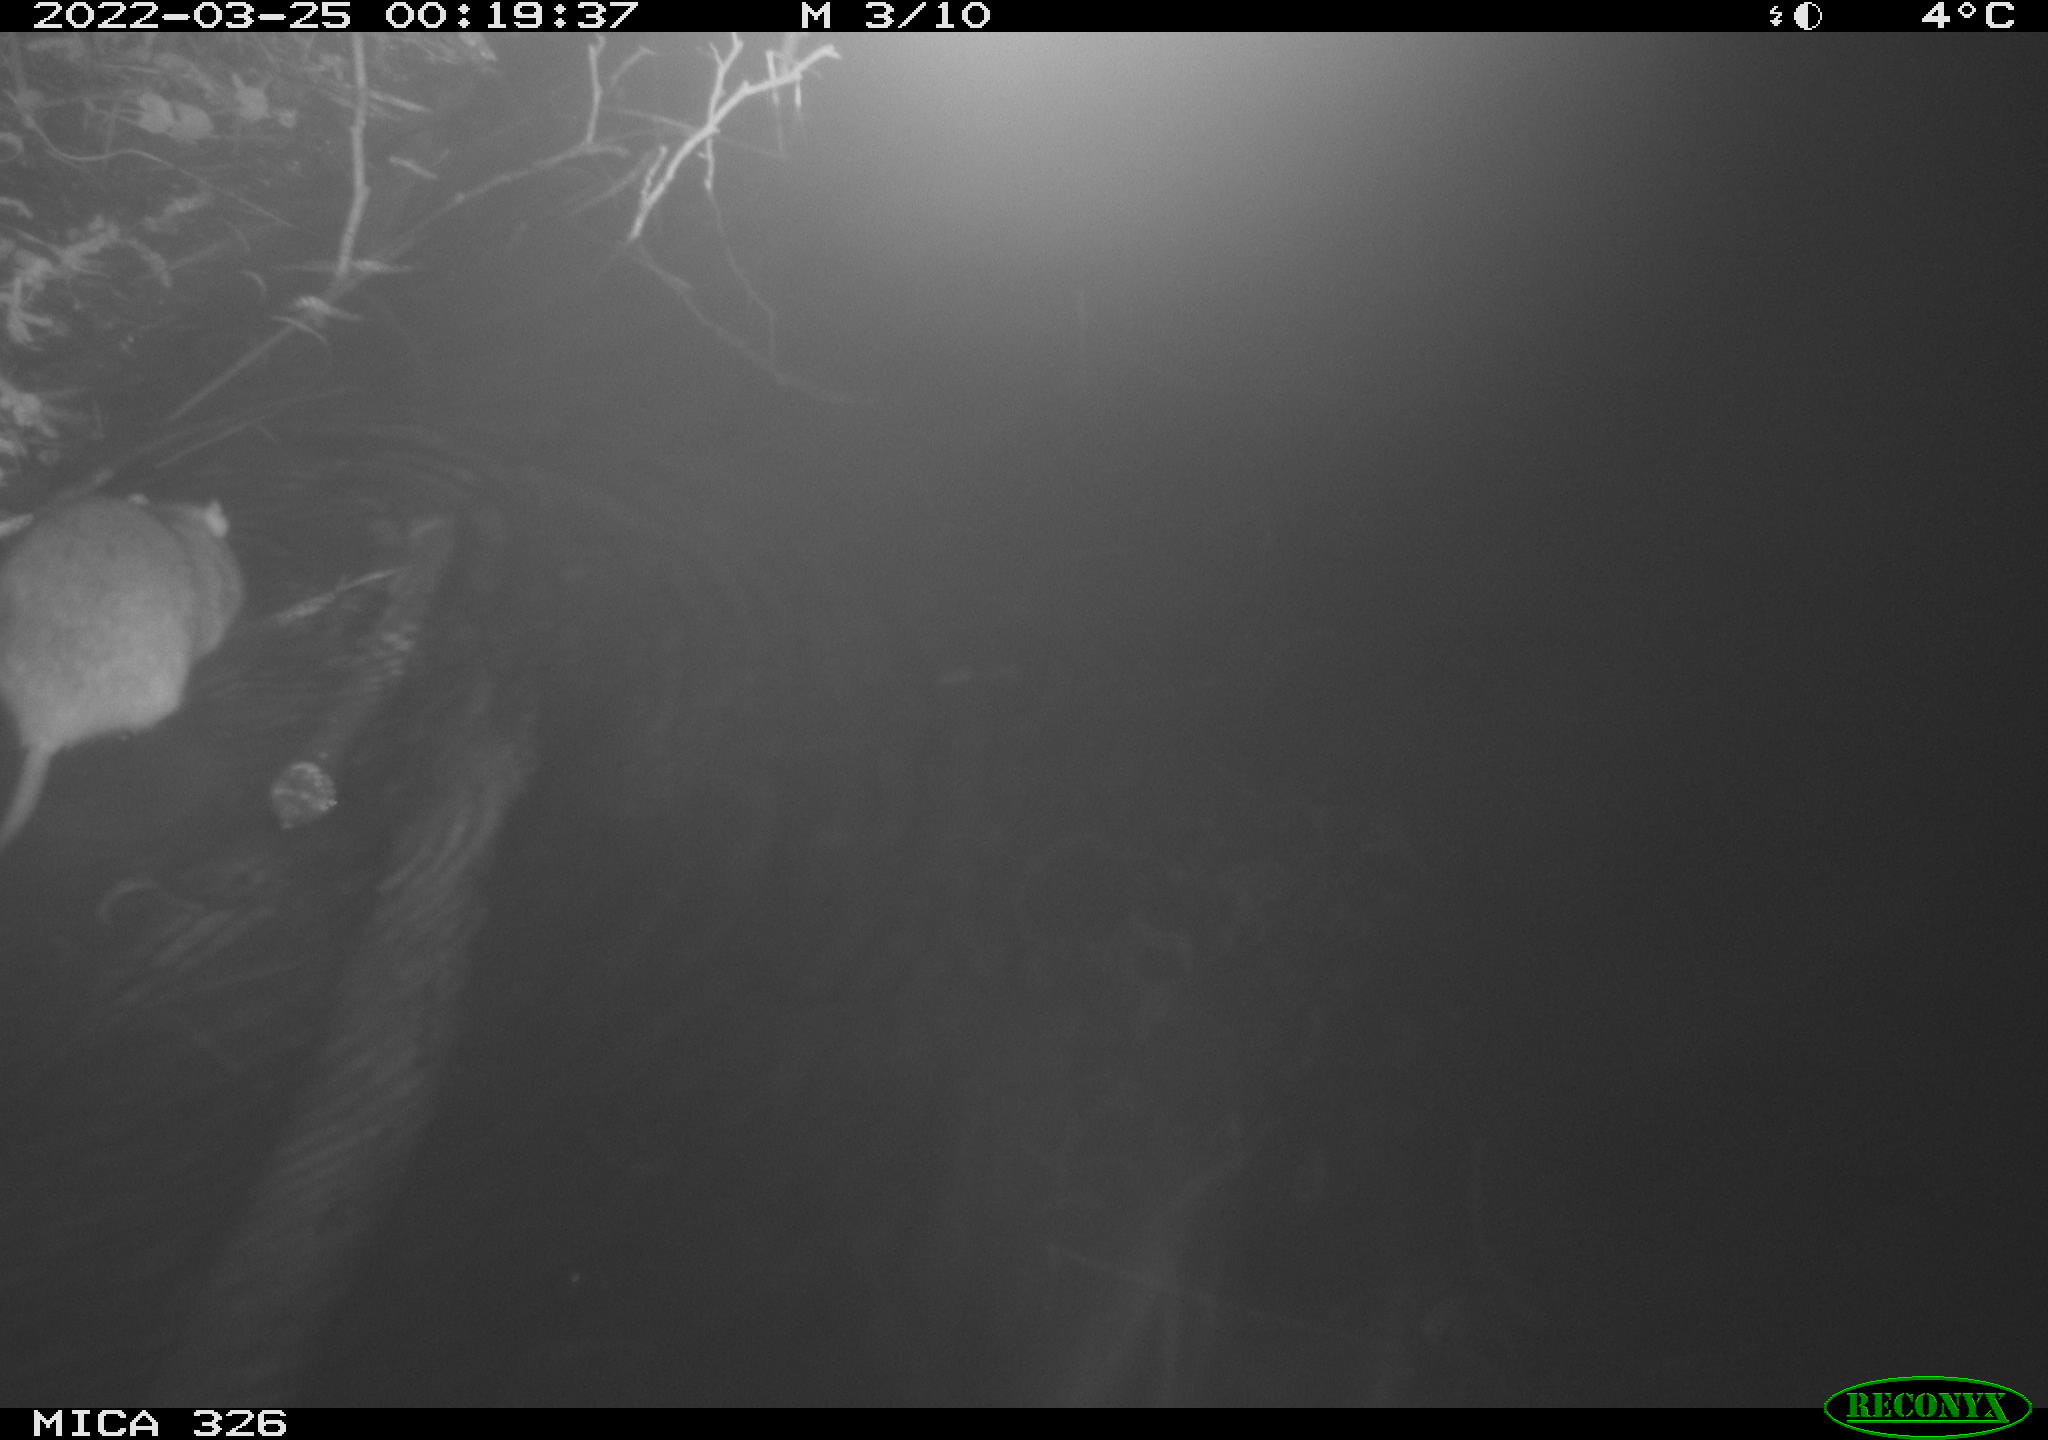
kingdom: Animalia
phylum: Chordata
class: Mammalia
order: Rodentia
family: Muridae
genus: Rattus
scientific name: Rattus norvegicus
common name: Brown rat
